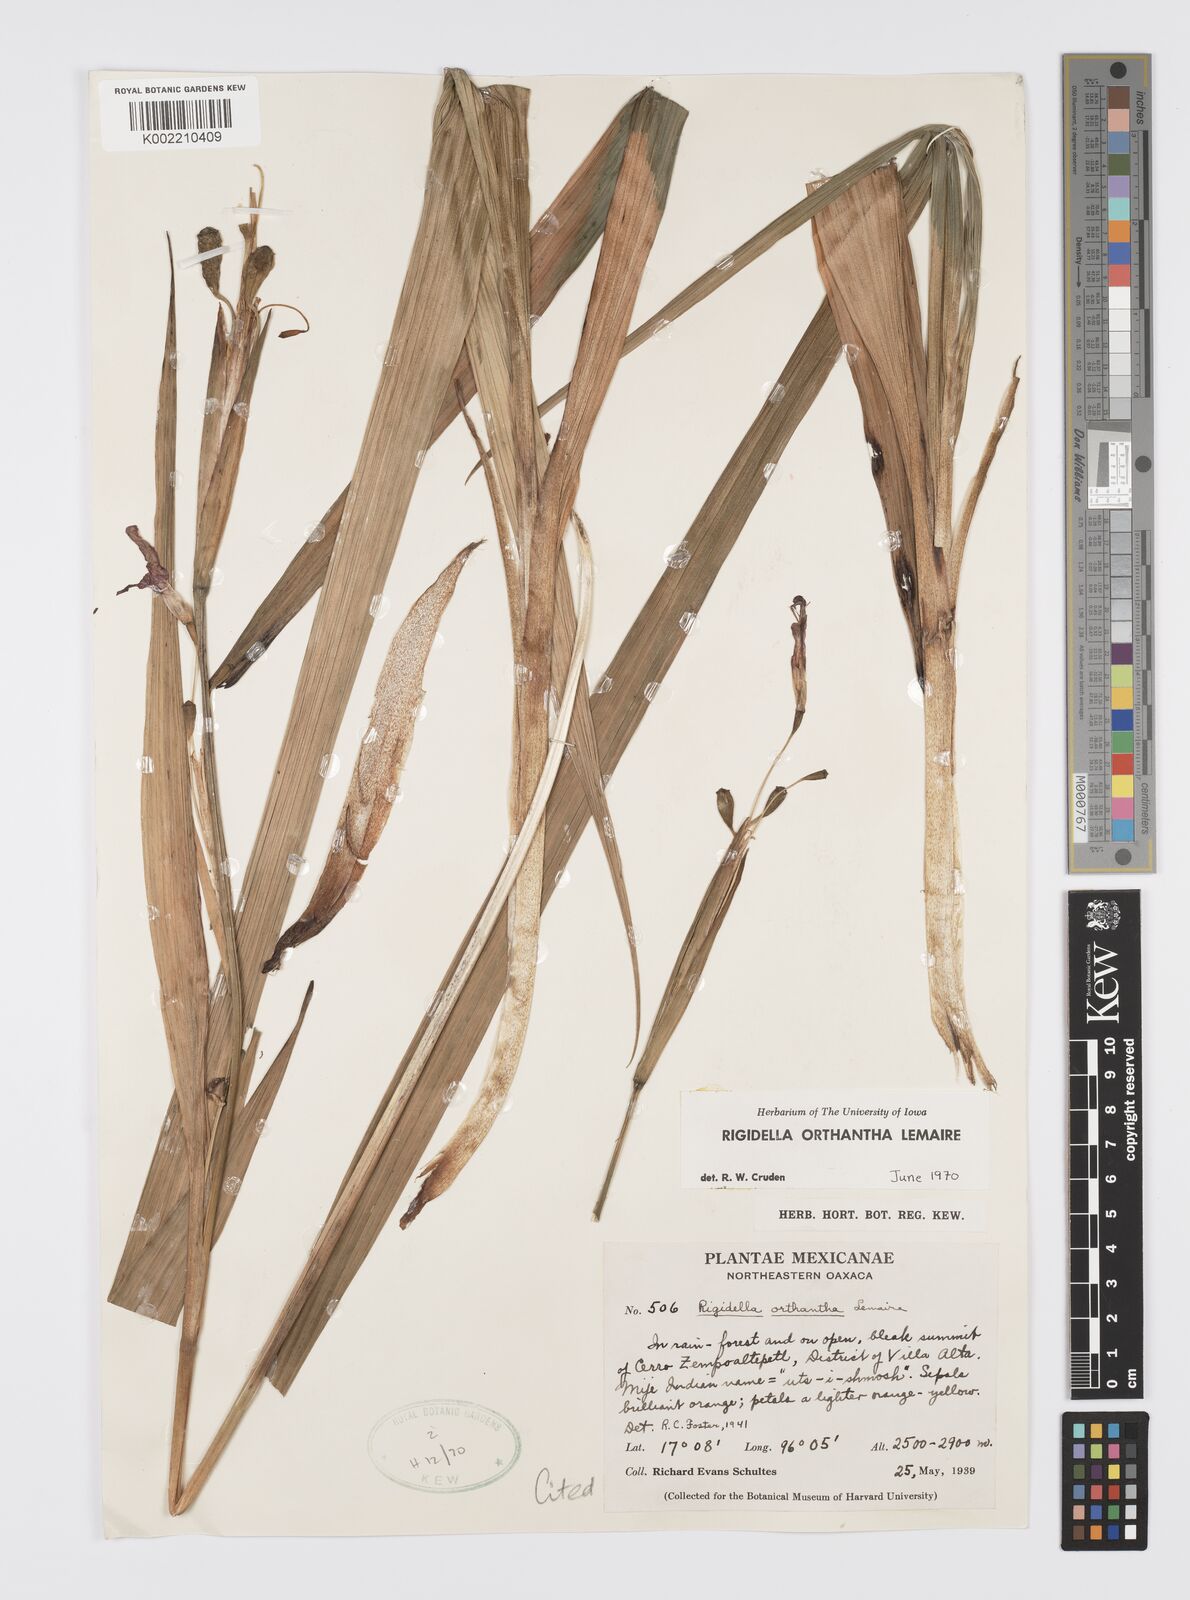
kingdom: Plantae
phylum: Tracheophyta
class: Liliopsida
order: Asparagales
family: Iridaceae
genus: Tigridia
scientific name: Tigridia orthantha
